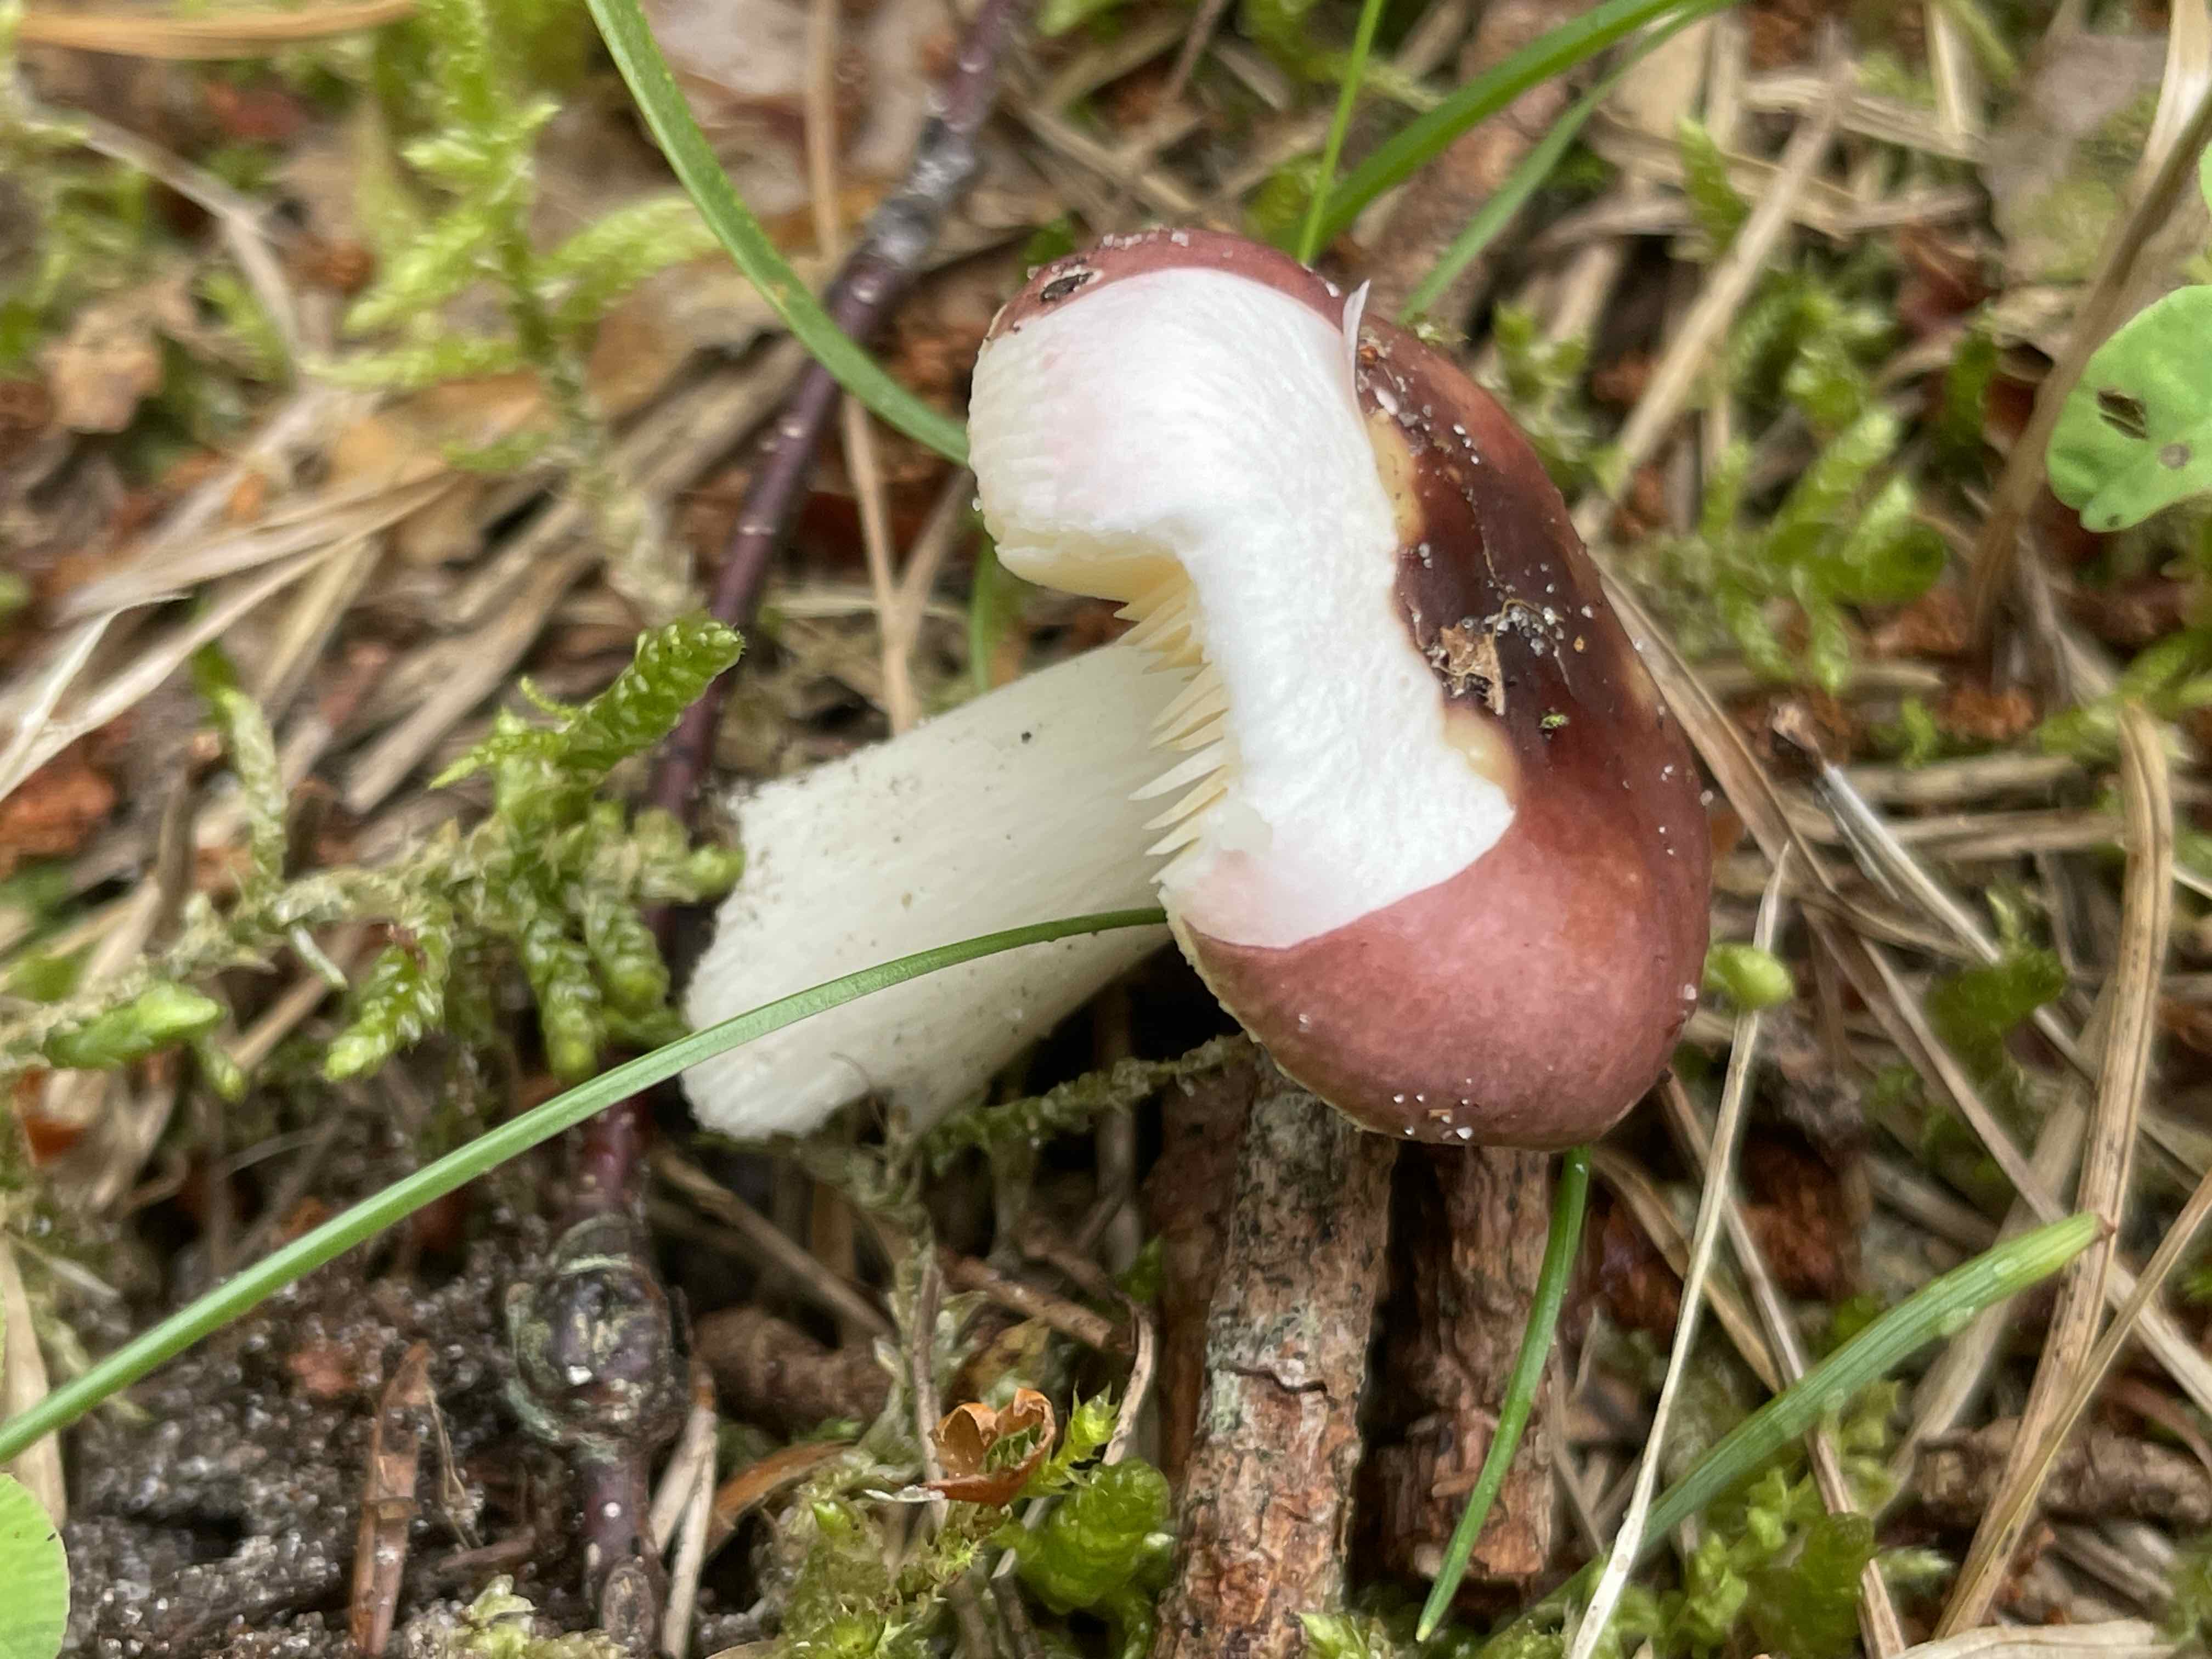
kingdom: Fungi
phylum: Basidiomycota
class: Agaricomycetes
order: Russulales
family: Russulaceae
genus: Russula
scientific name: Russula nauseosa
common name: spinkel skørhat
